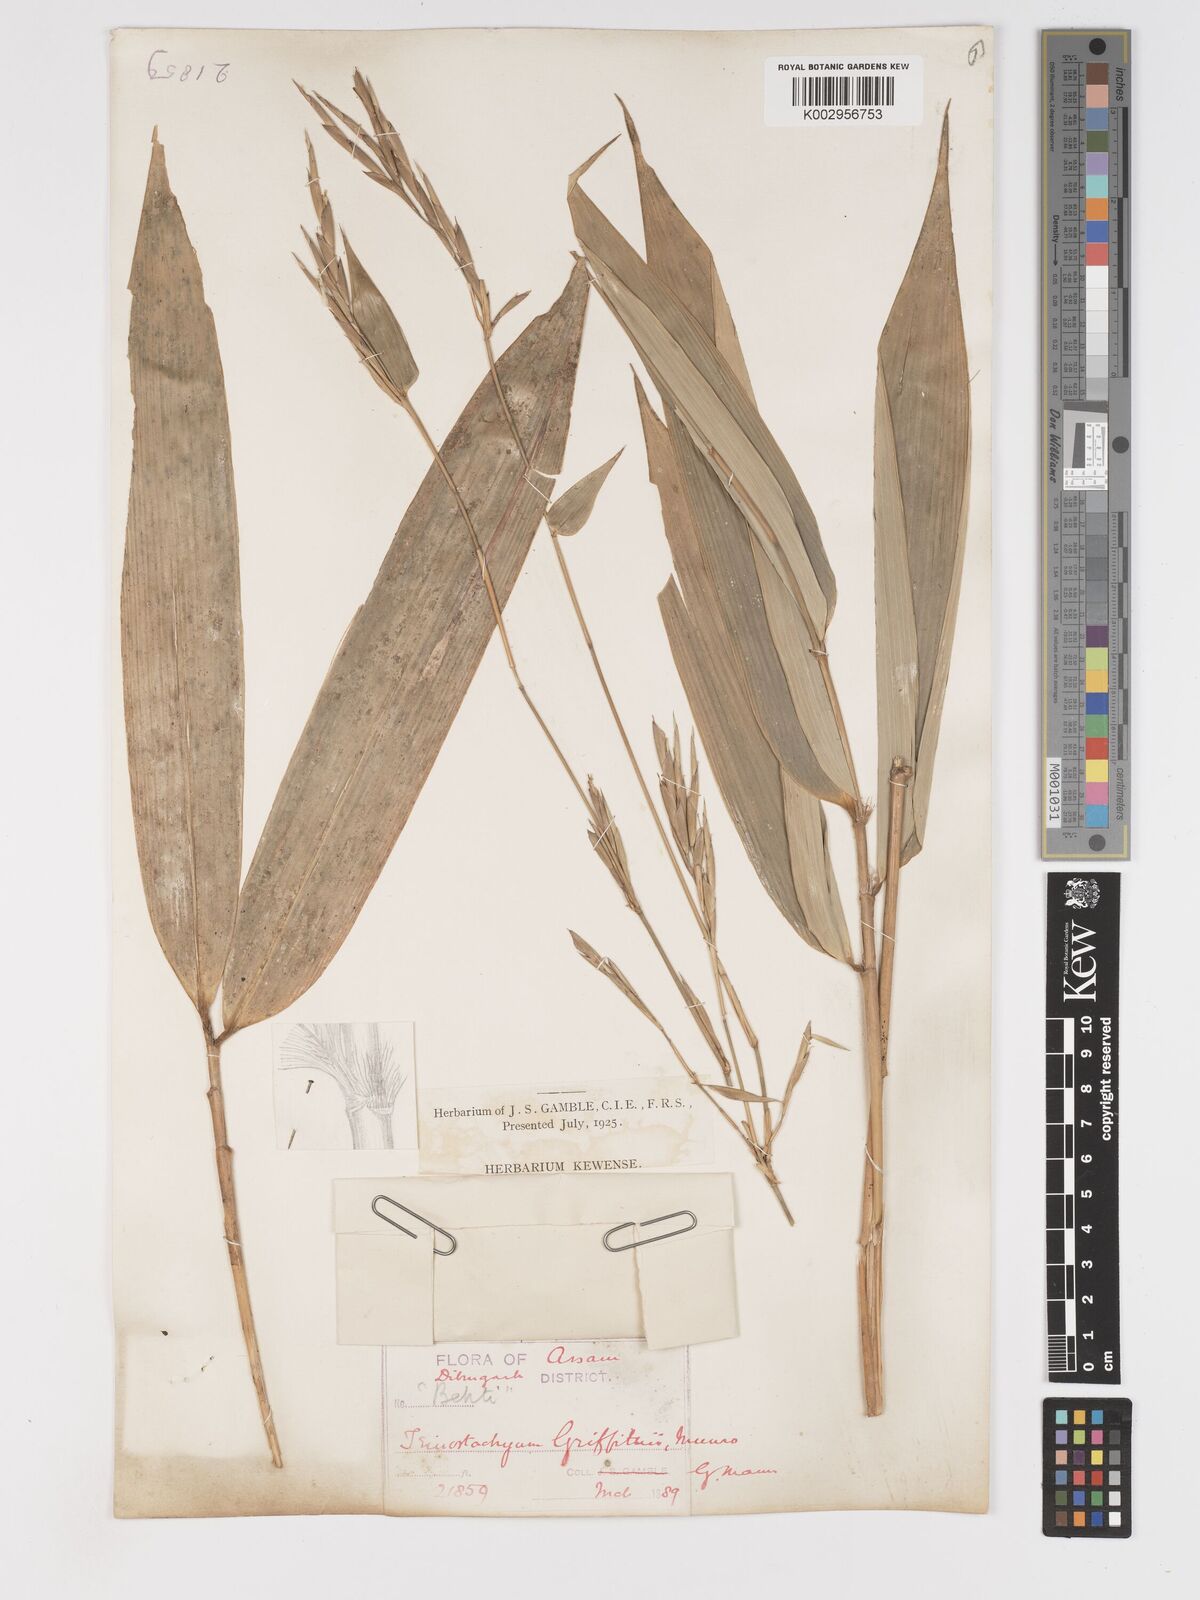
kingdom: Plantae
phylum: Tracheophyta
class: Liliopsida
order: Poales
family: Poaceae
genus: Schizostachyum
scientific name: Schizostachyum griffithii
